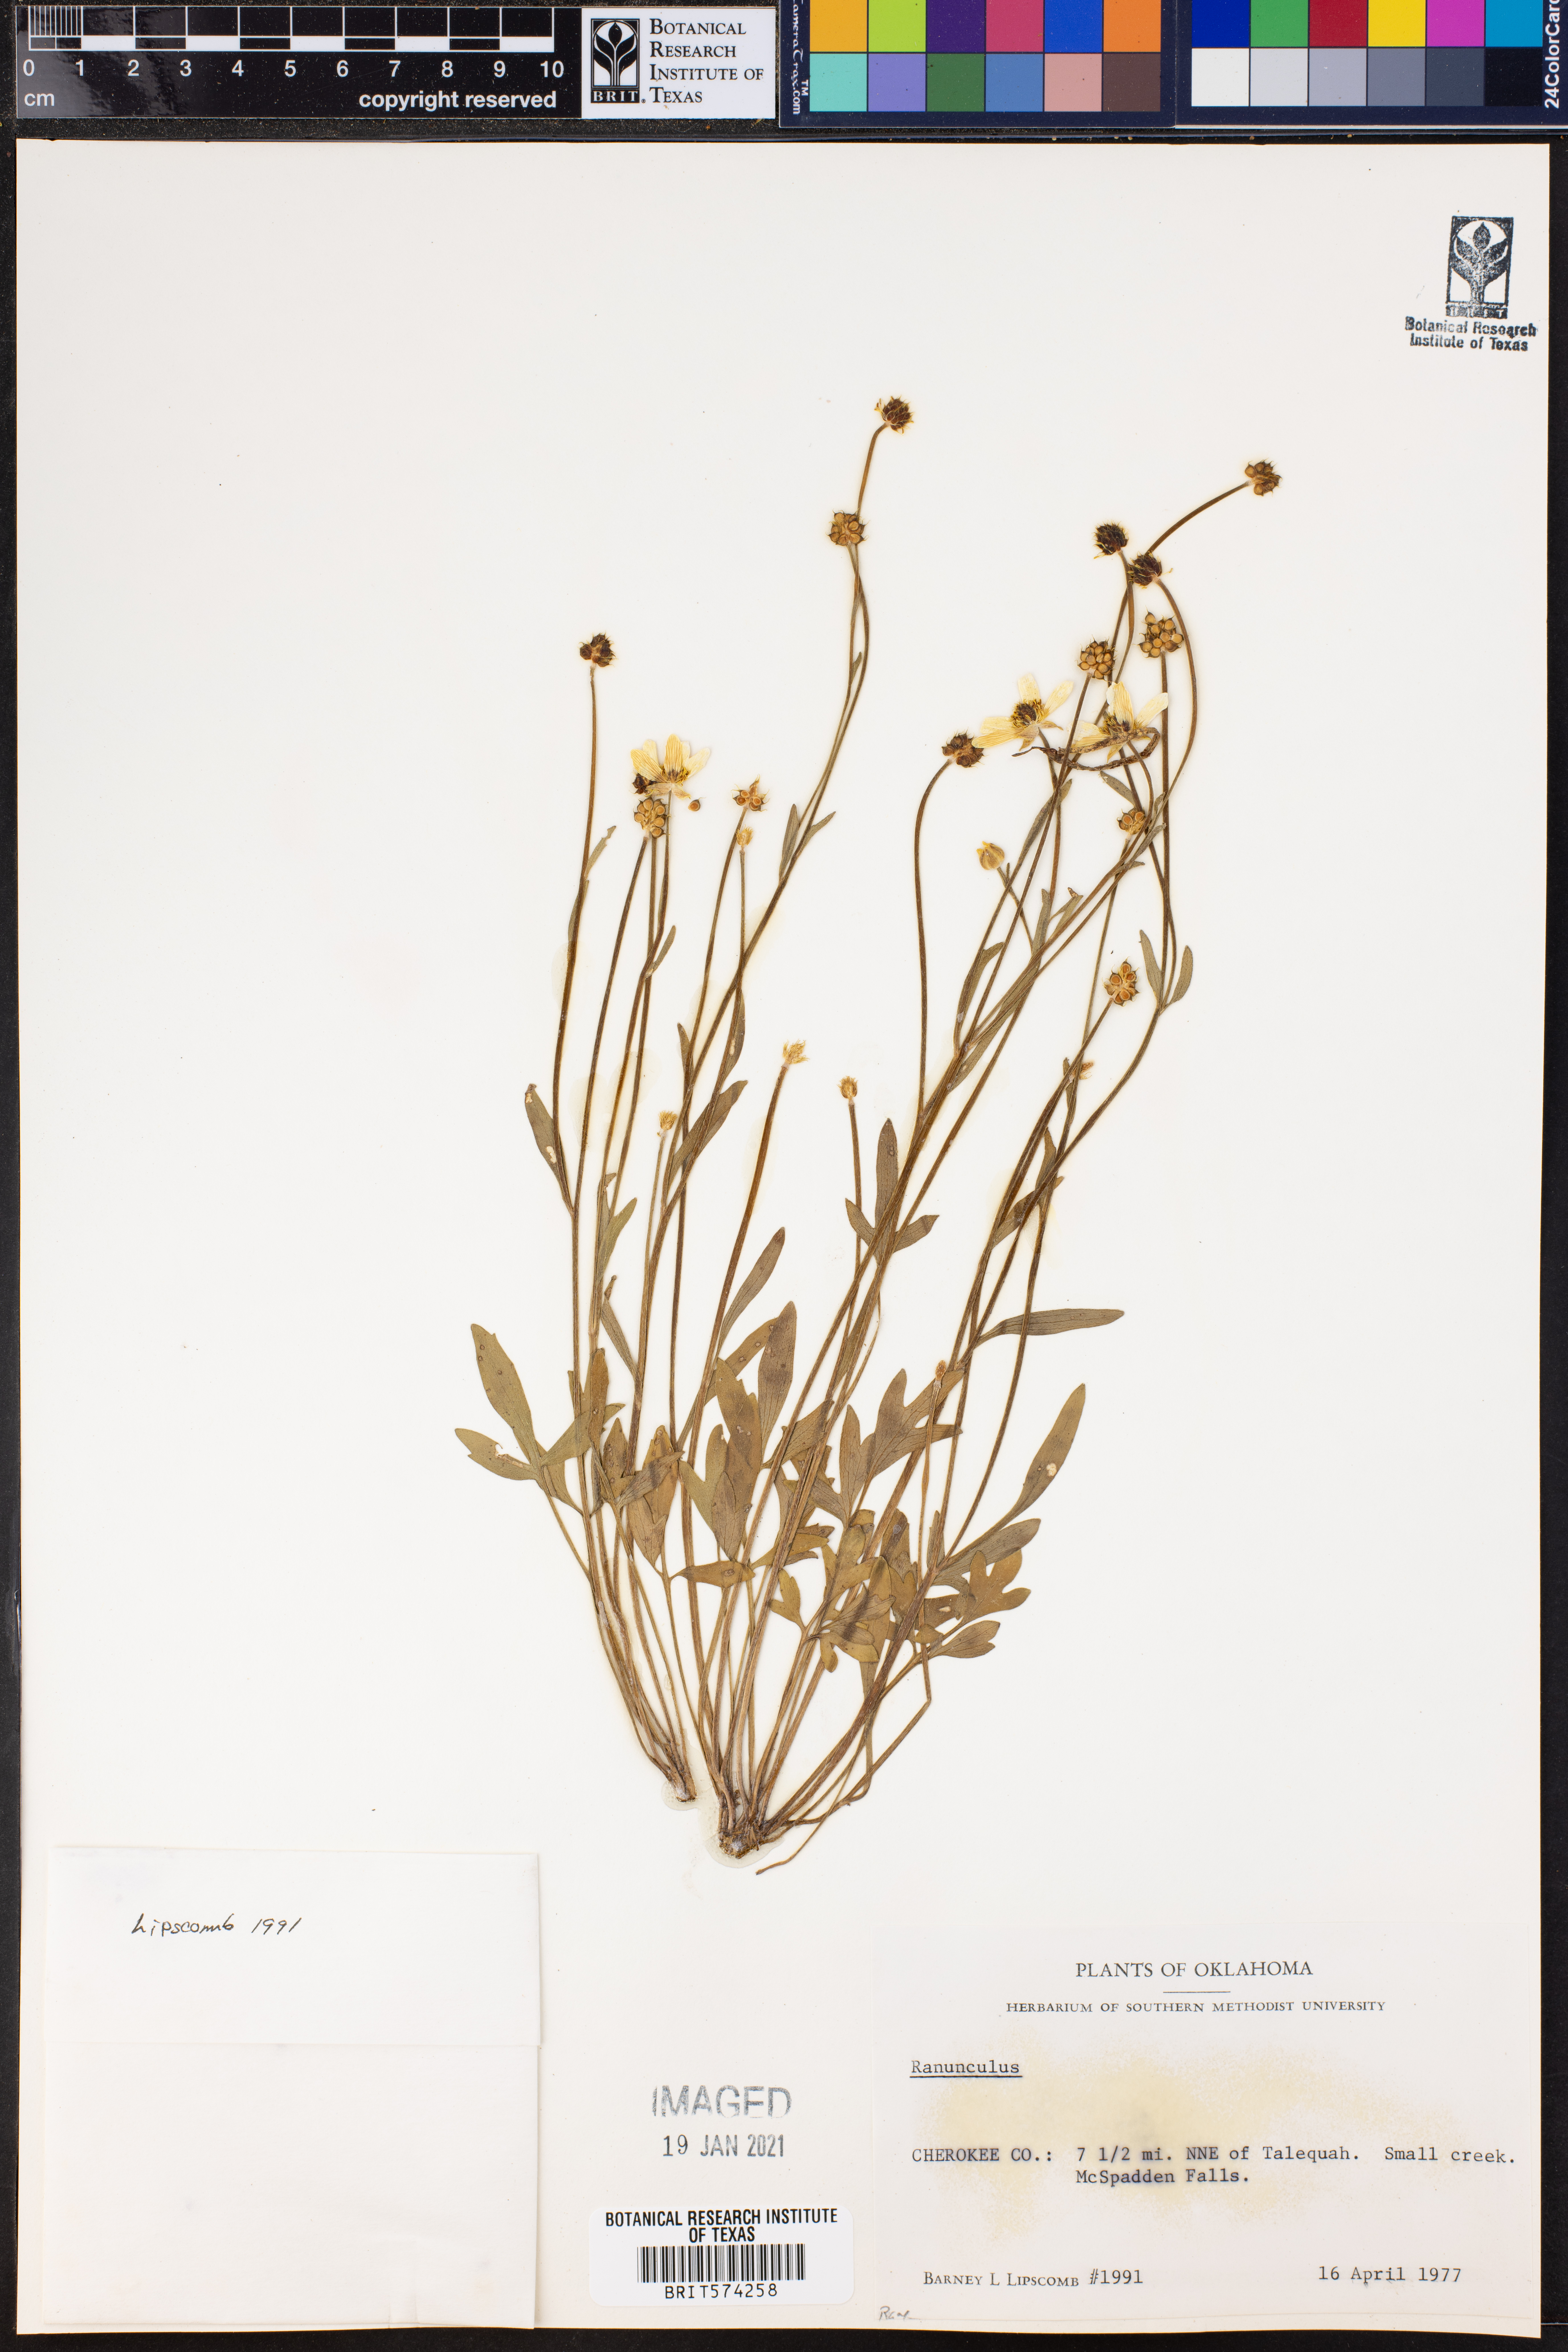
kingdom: Plantae
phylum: Tracheophyta
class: Magnoliopsida
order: Ranunculales
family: Ranunculaceae
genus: Ranunculus
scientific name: Ranunculus
